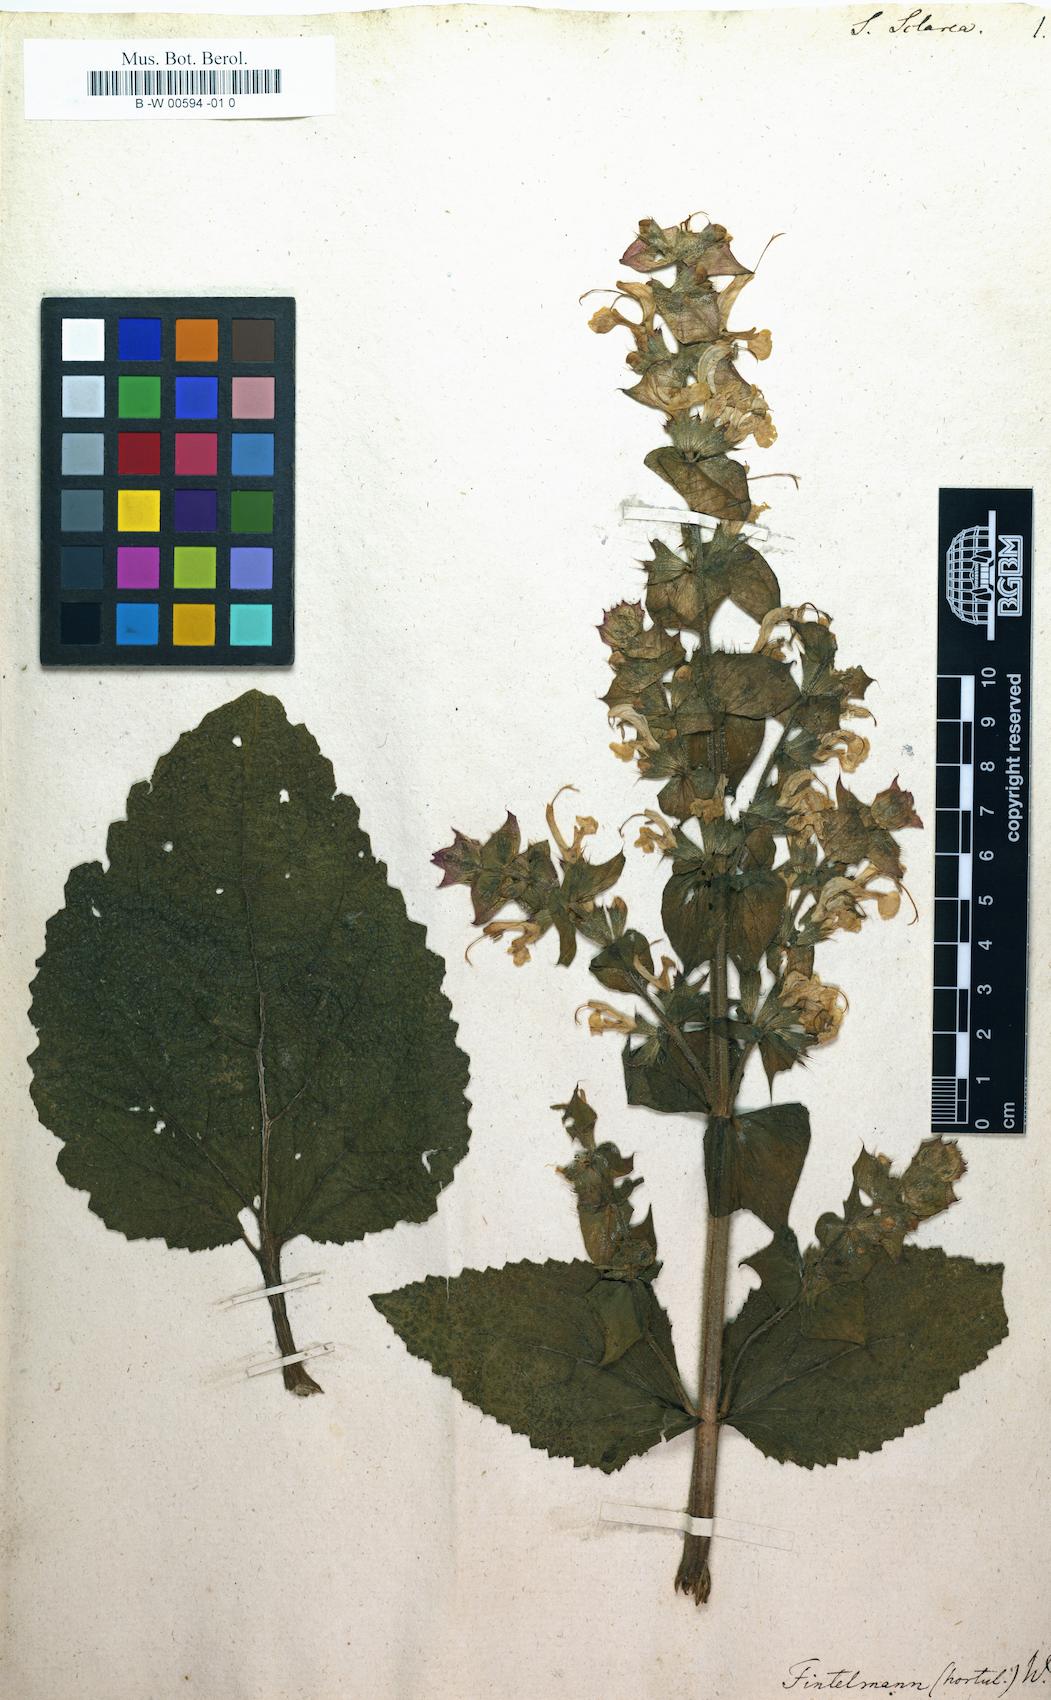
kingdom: Plantae
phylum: Tracheophyta
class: Magnoliopsida
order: Lamiales
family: Lamiaceae
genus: Salvia
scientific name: Salvia sclarea
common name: Clary
